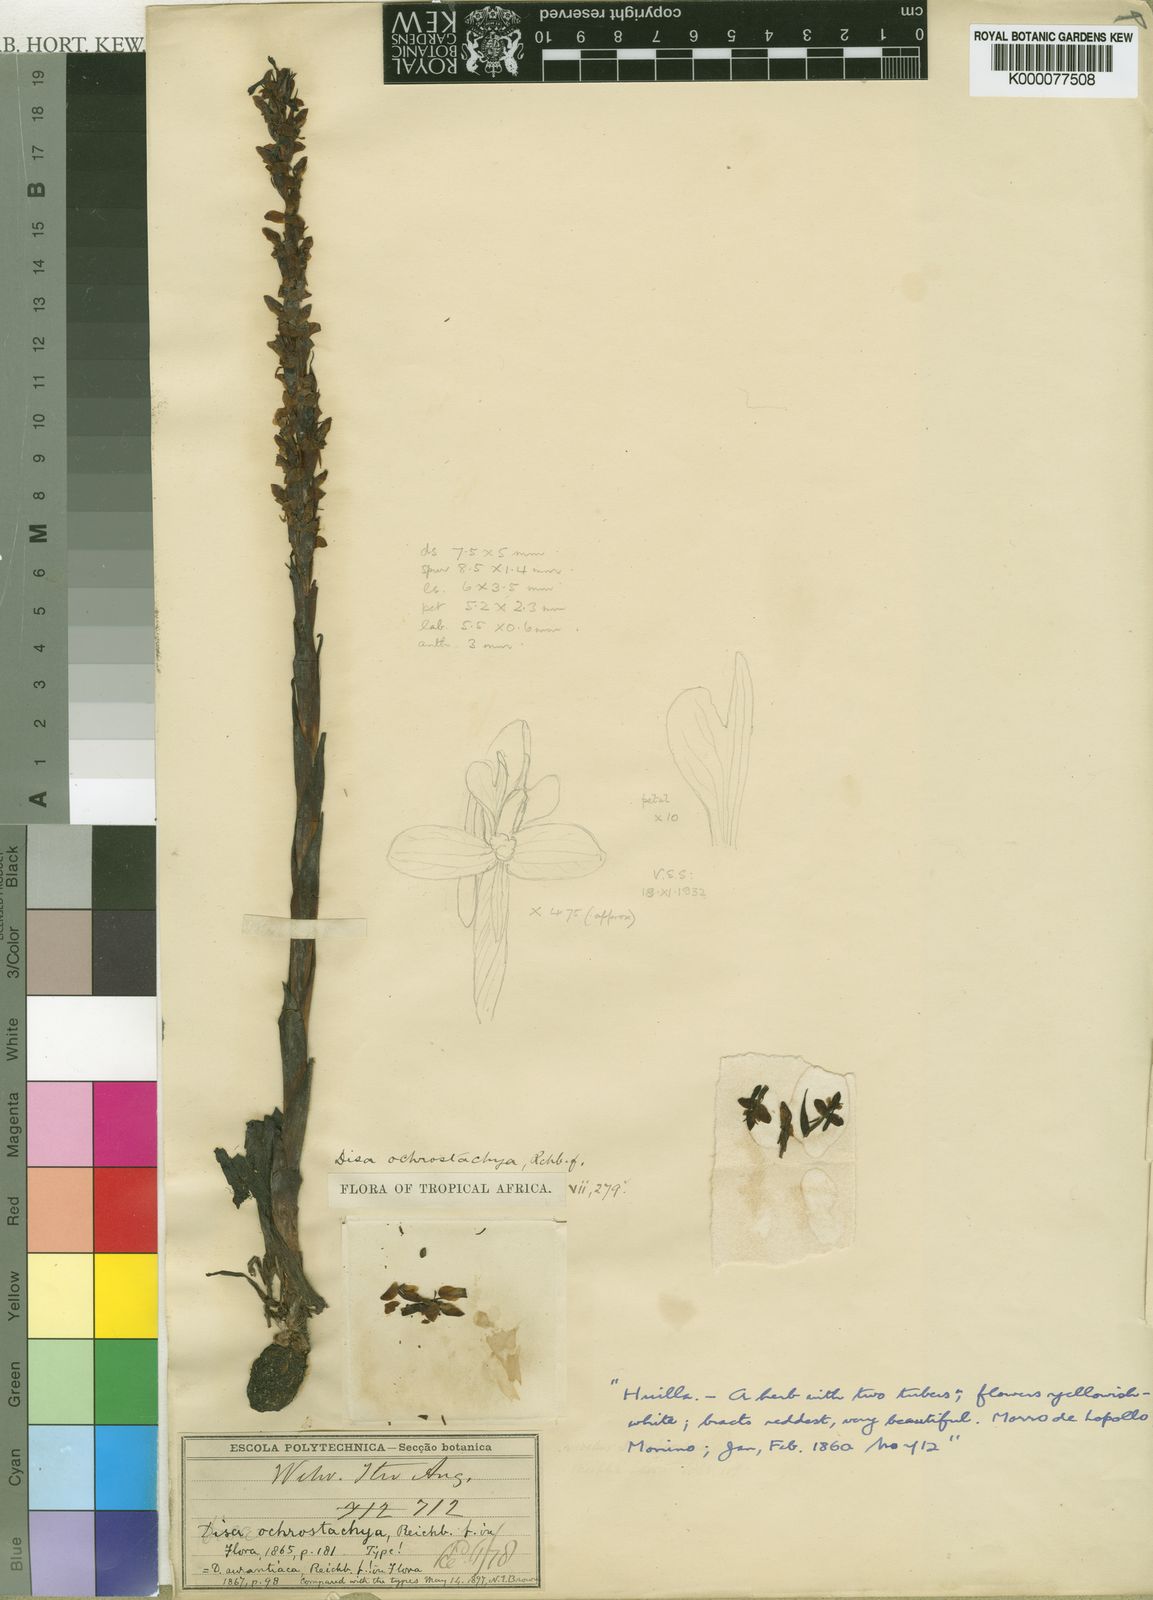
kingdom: Plantae
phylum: Tracheophyta
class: Liliopsida
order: Asparagales
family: Orchidaceae
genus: Disa
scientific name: Disa ochrostachya
